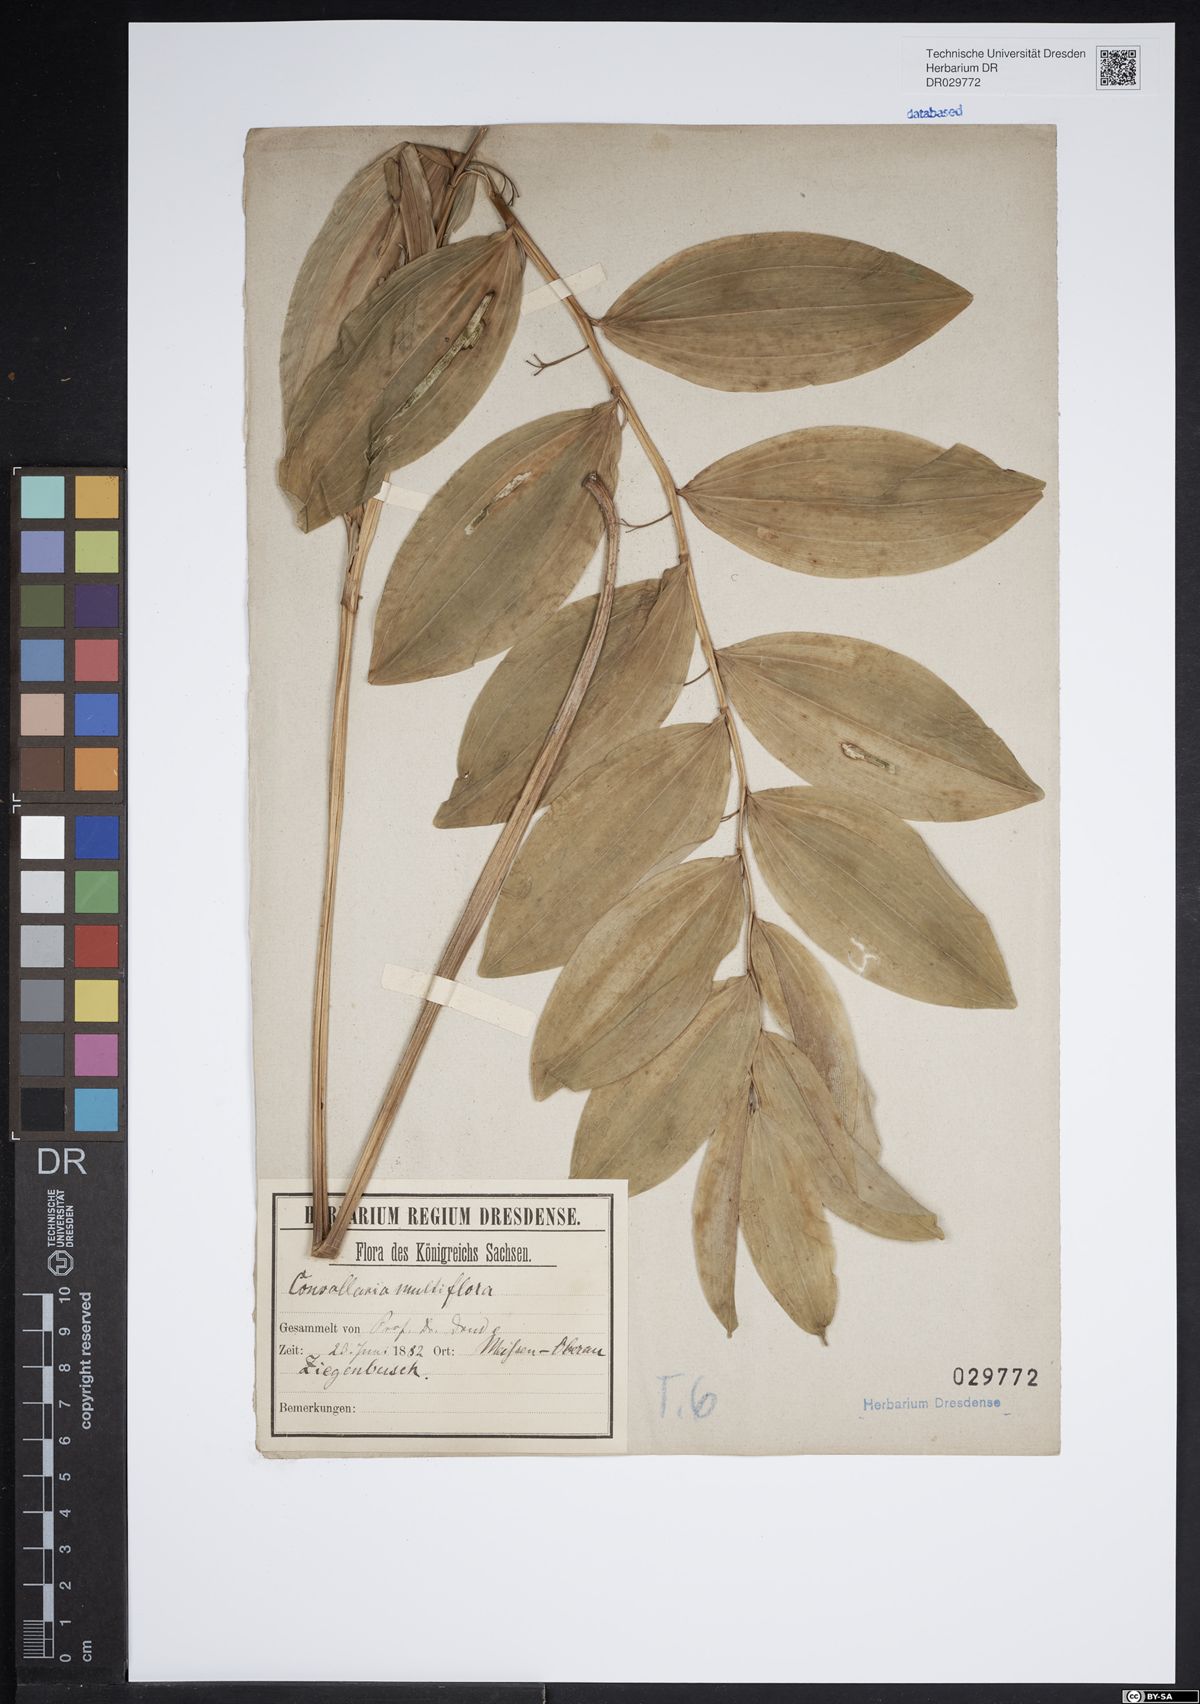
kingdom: Plantae
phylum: Tracheophyta
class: Liliopsida
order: Asparagales
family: Asparagaceae
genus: Polygonatum
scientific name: Polygonatum multiflorum
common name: Solomon's-seal
